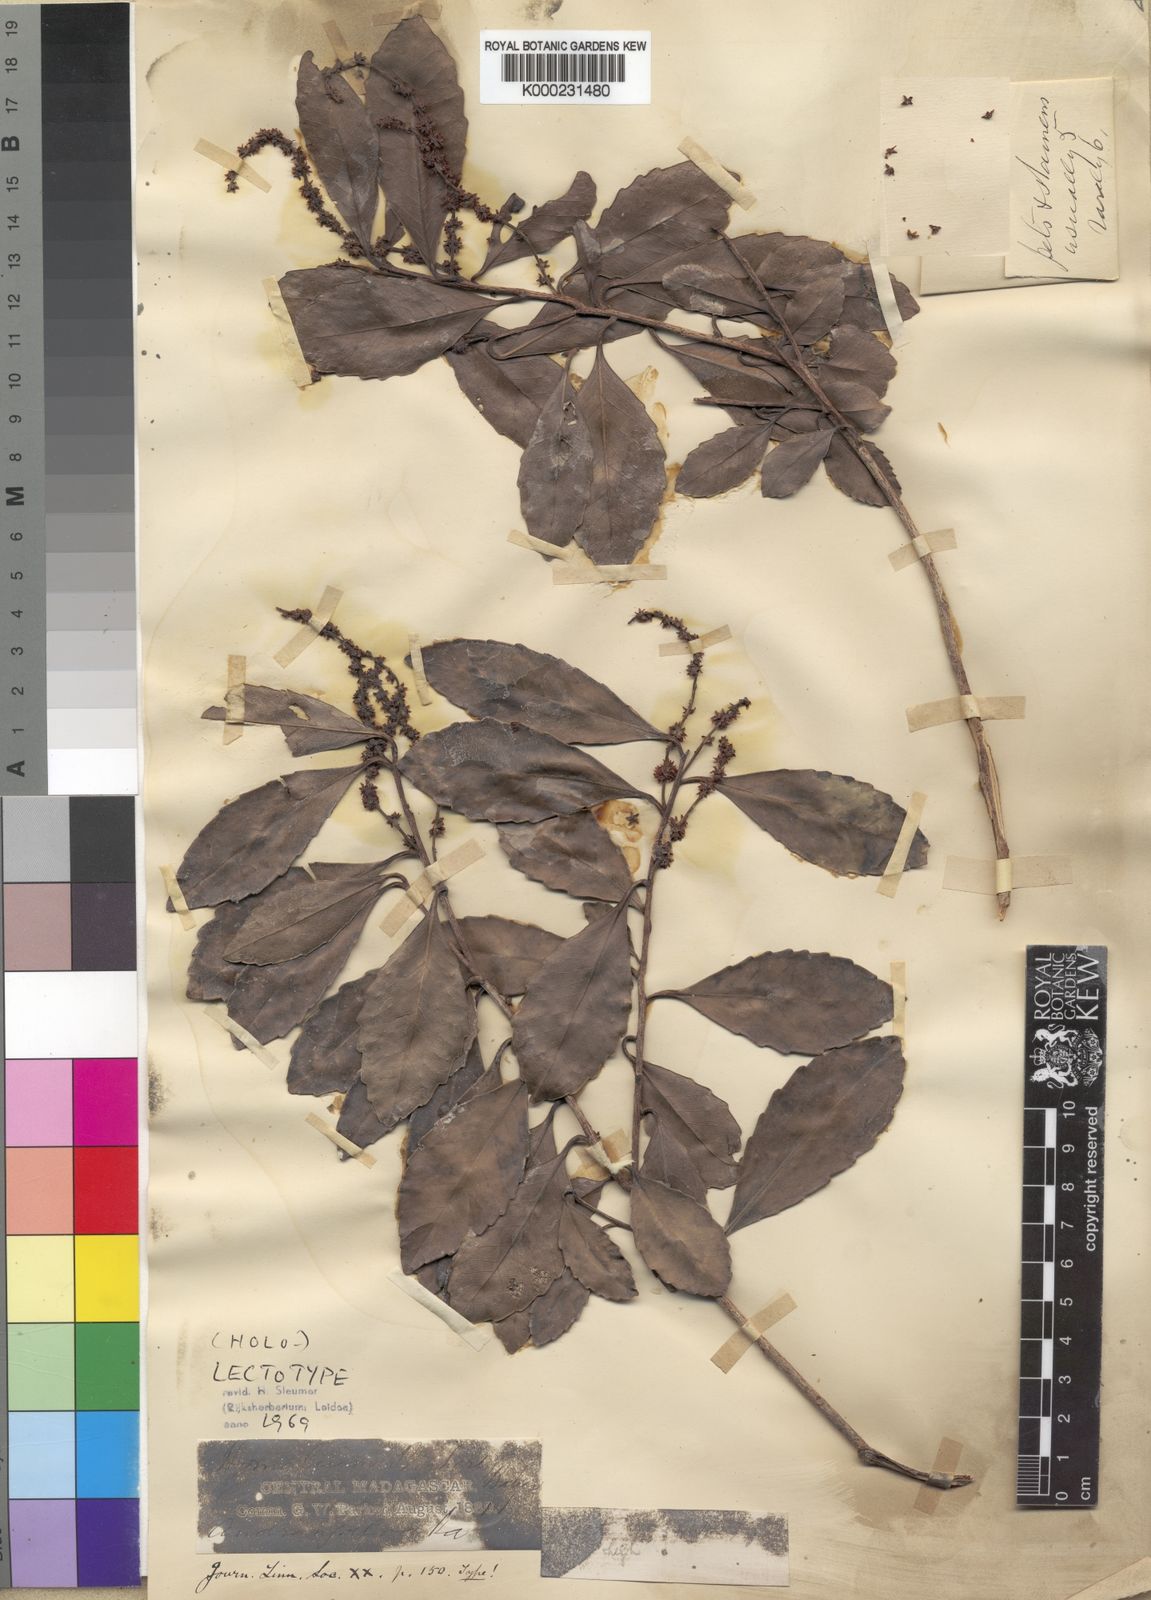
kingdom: Plantae
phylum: Tracheophyta
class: Magnoliopsida
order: Malpighiales
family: Salicaceae
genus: Homalium
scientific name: Homalium parkeri
